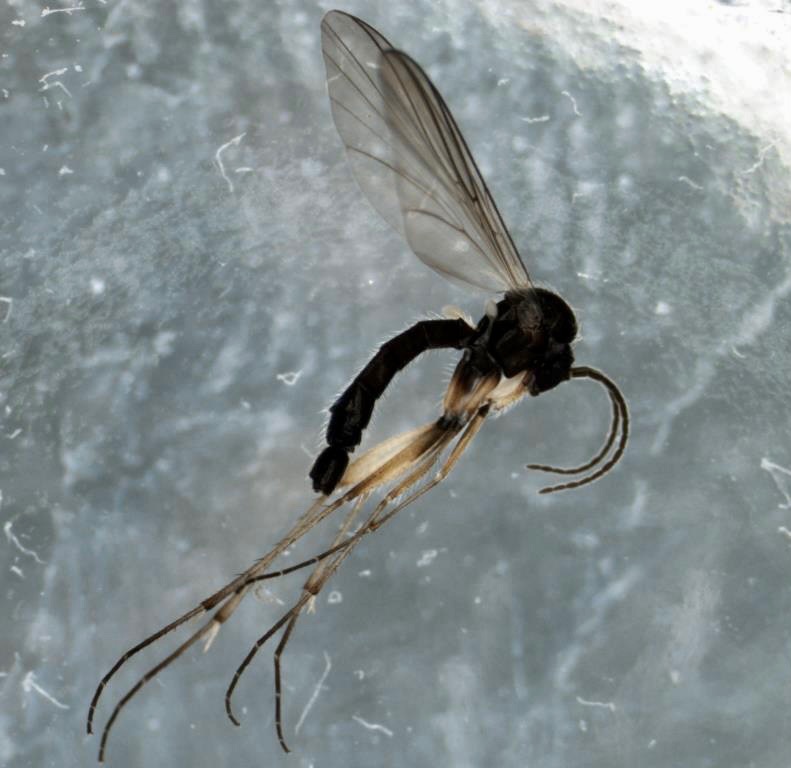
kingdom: Animalia
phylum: Arthropoda
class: Insecta
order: Diptera
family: Mycetophilidae
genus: Boletina
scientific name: Boletina gripha
